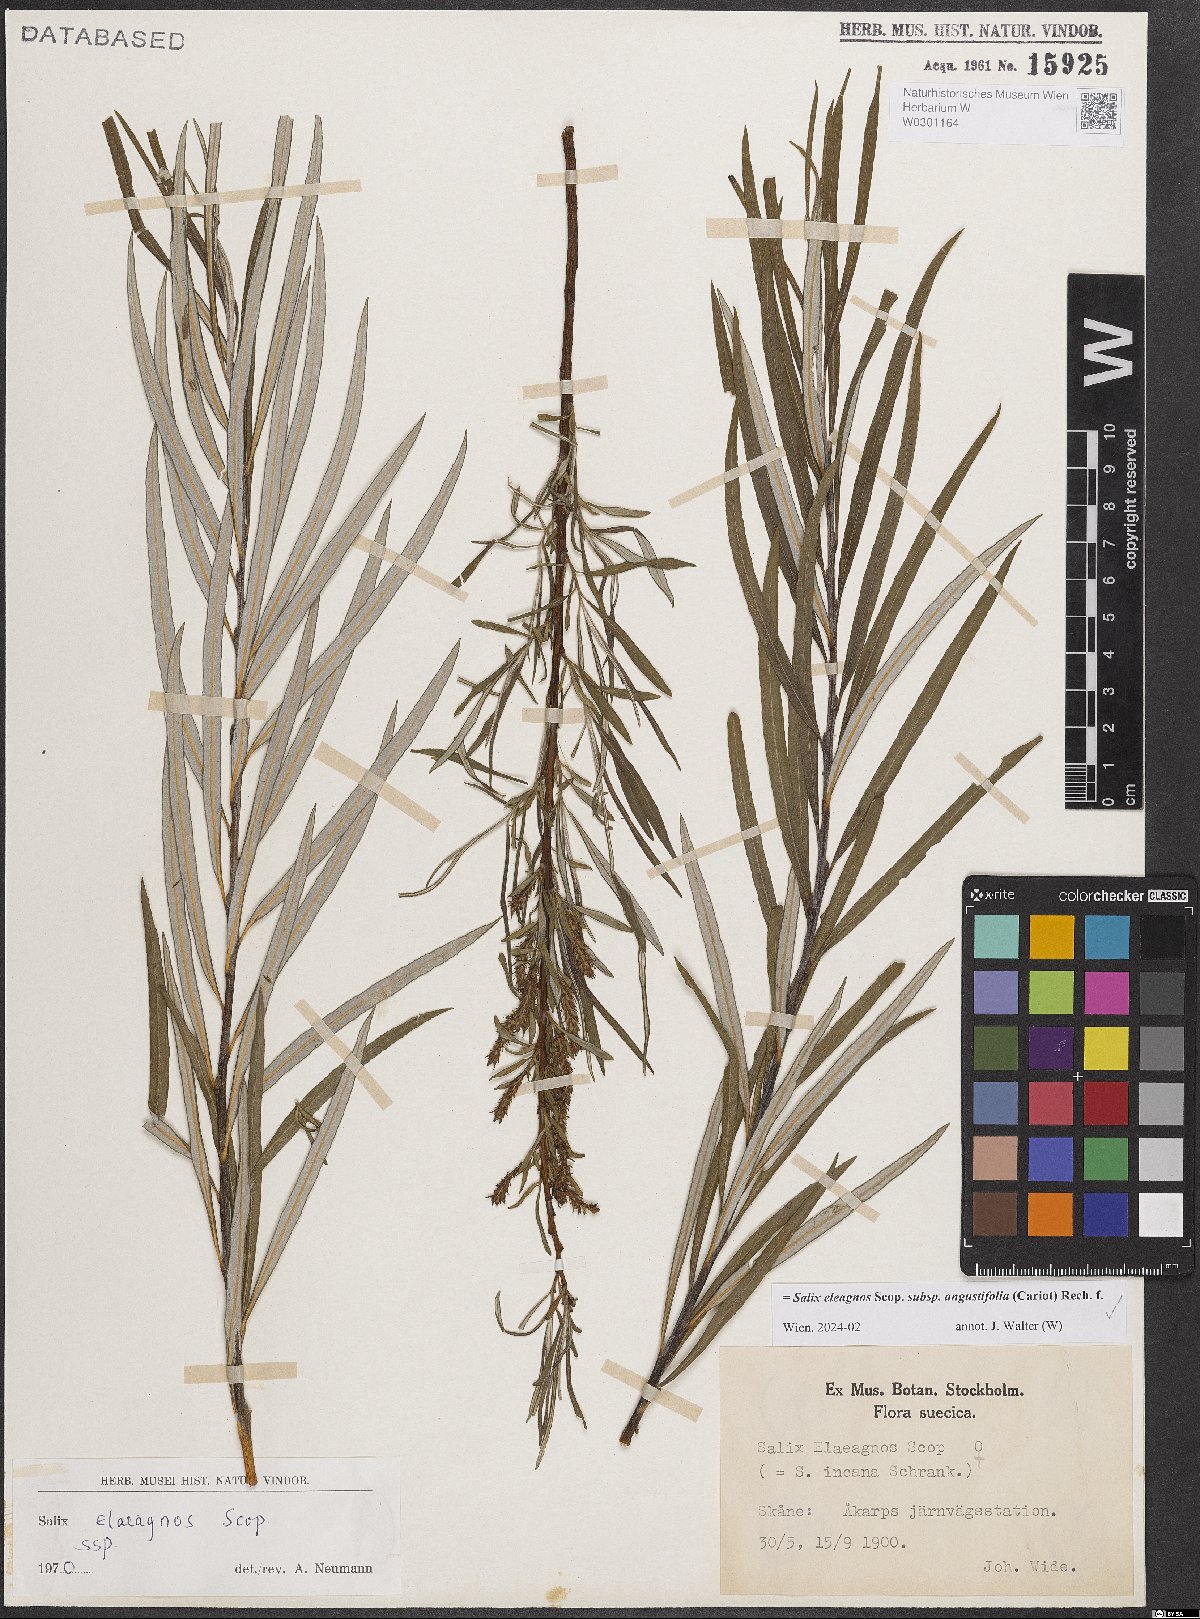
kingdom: Plantae
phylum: Tracheophyta
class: Magnoliopsida
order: Malpighiales
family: Salicaceae
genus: Salix
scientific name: Salix eleagnos
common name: Elaeagnus willow
